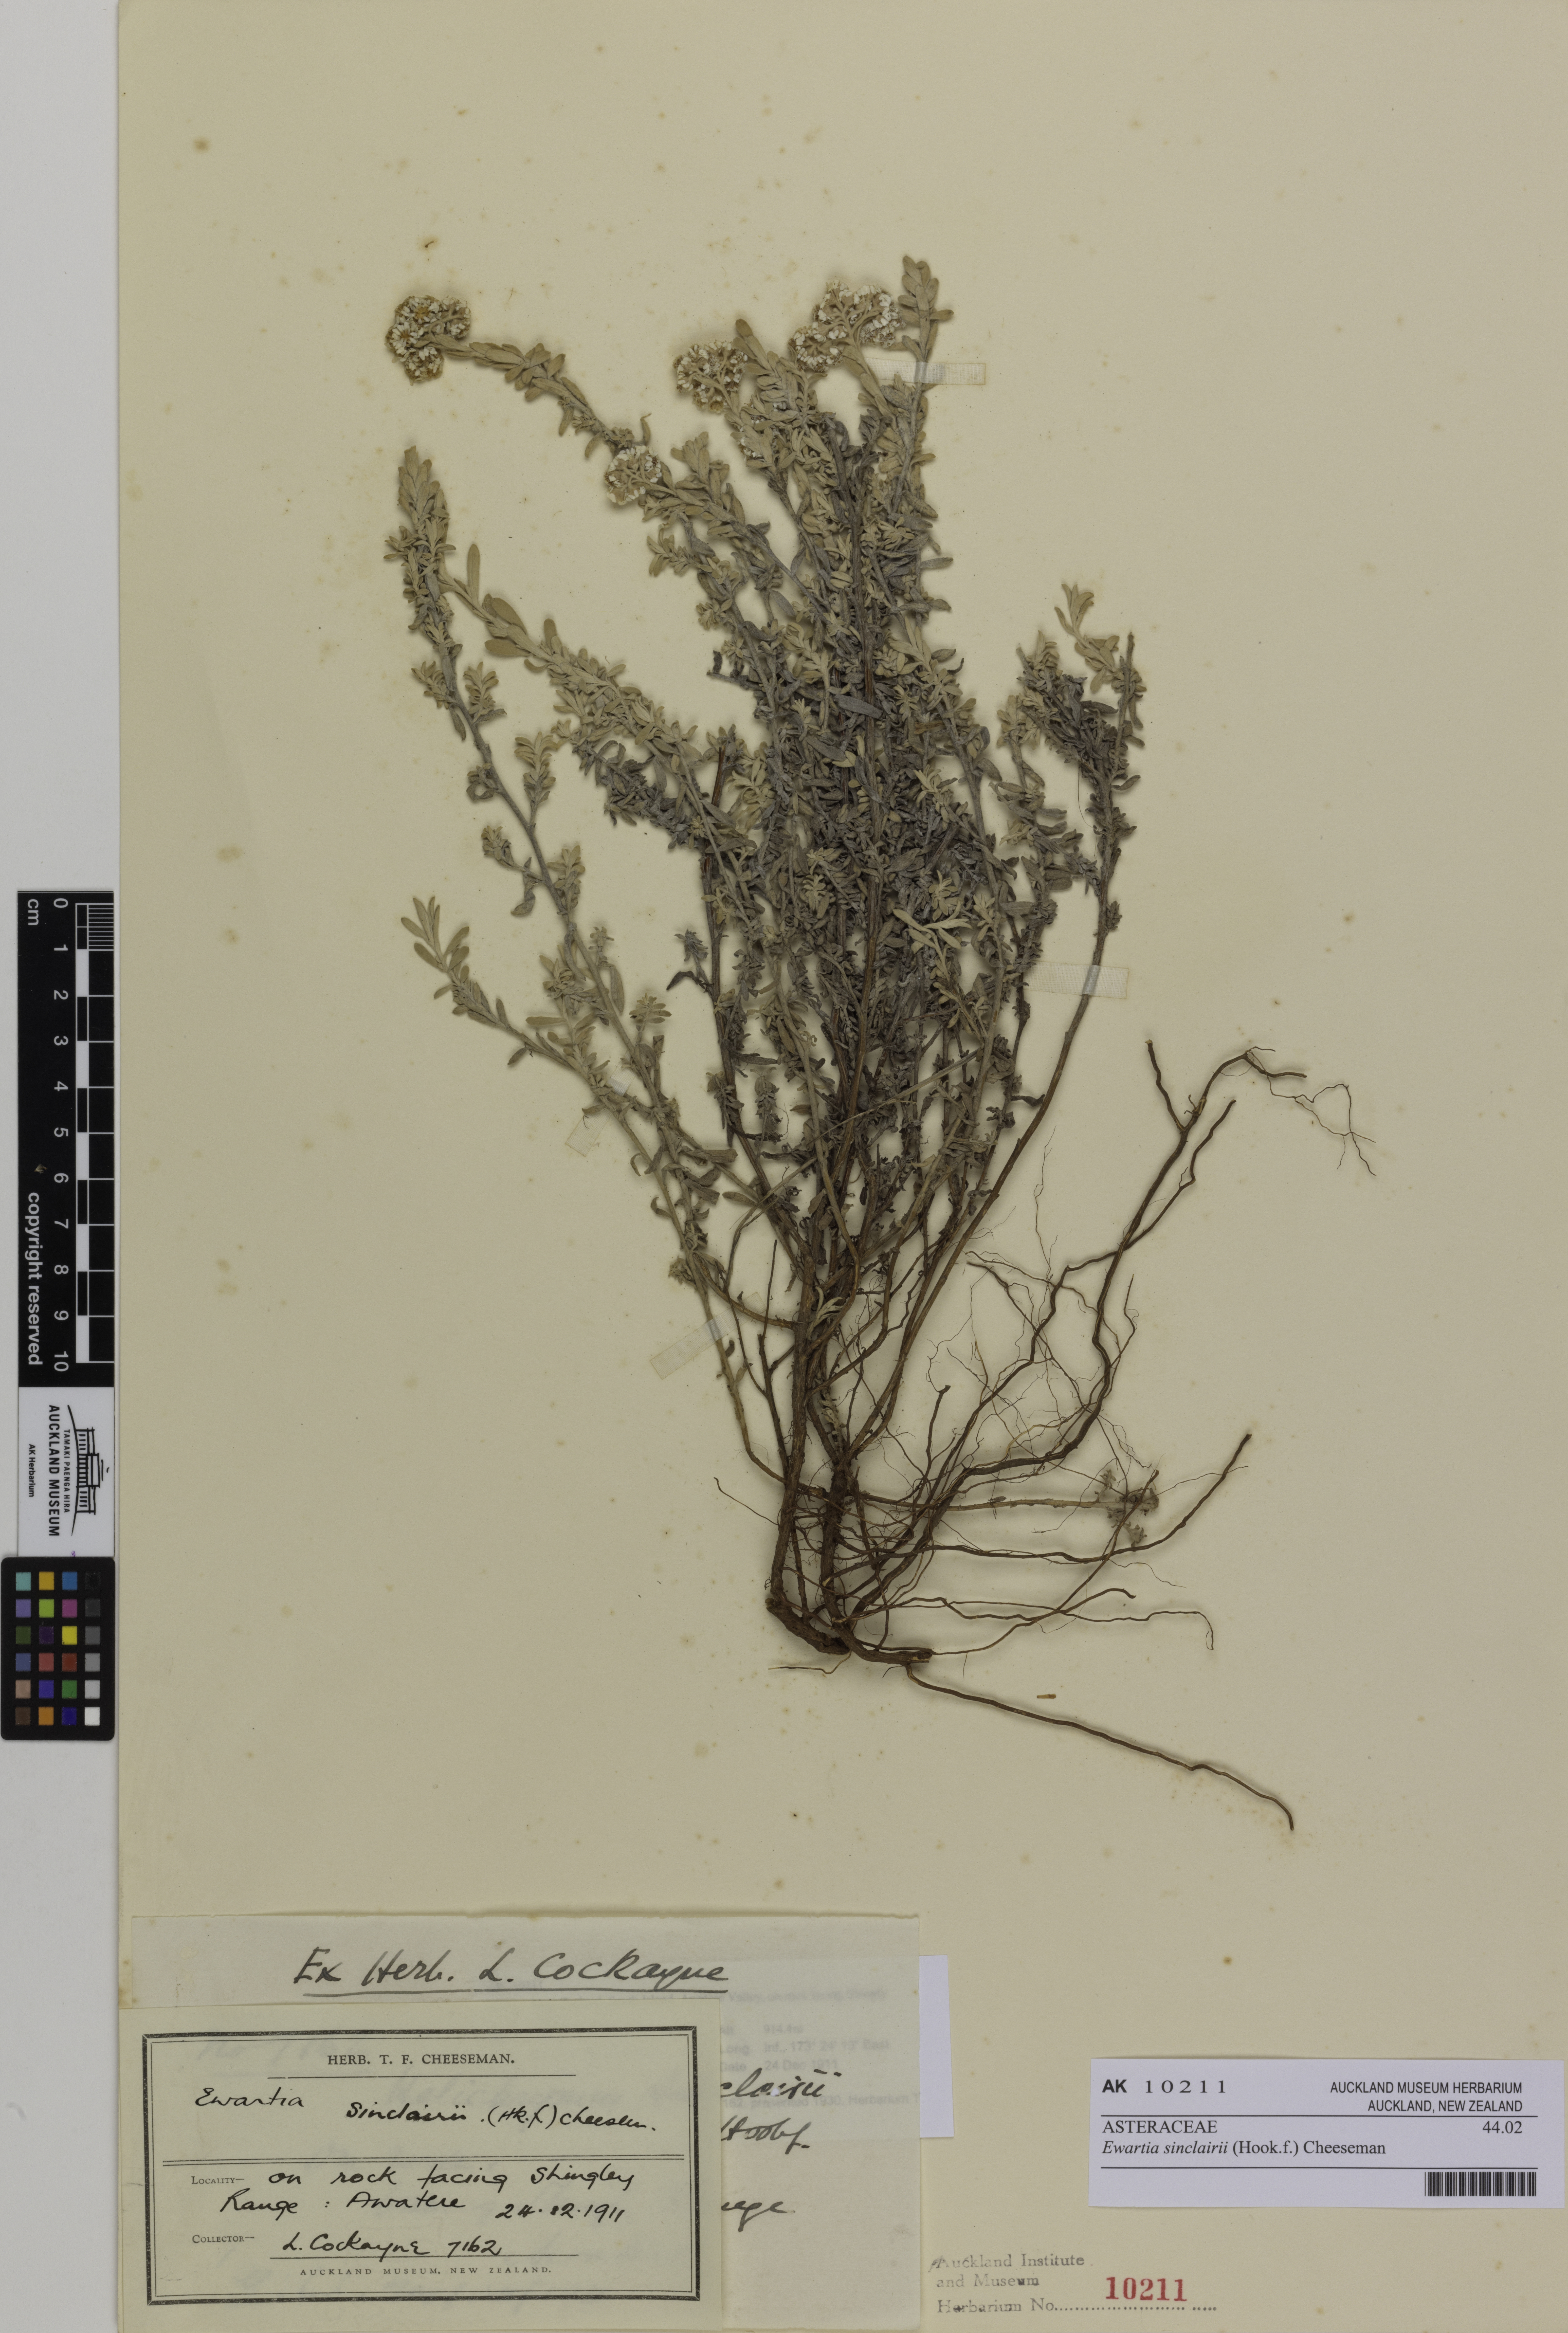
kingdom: Plantae
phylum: Tracheophyta
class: Magnoliopsida
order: Asterales
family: Asteraceae
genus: Ewartiothamnus
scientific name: Ewartiothamnus sinclairii
